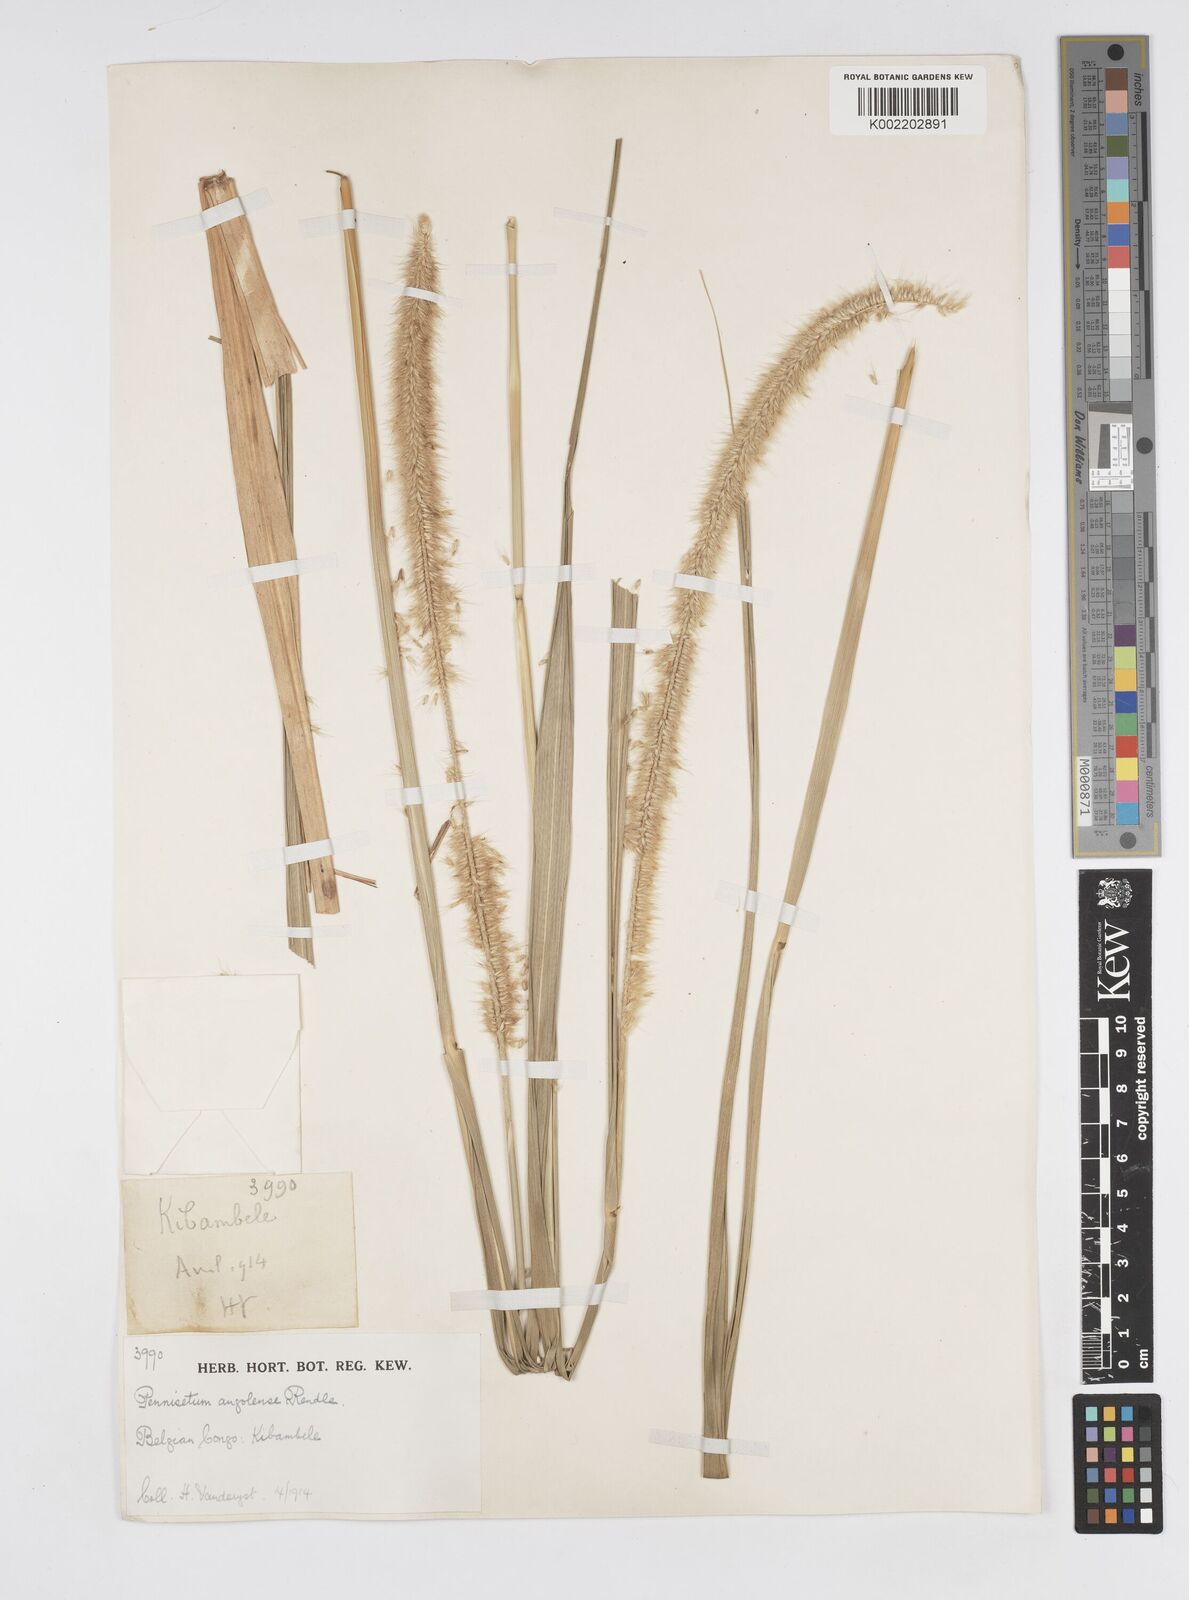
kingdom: Plantae
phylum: Tracheophyta
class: Liliopsida
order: Poales
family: Poaceae
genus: Cenchrus
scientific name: Cenchrus caudatus
